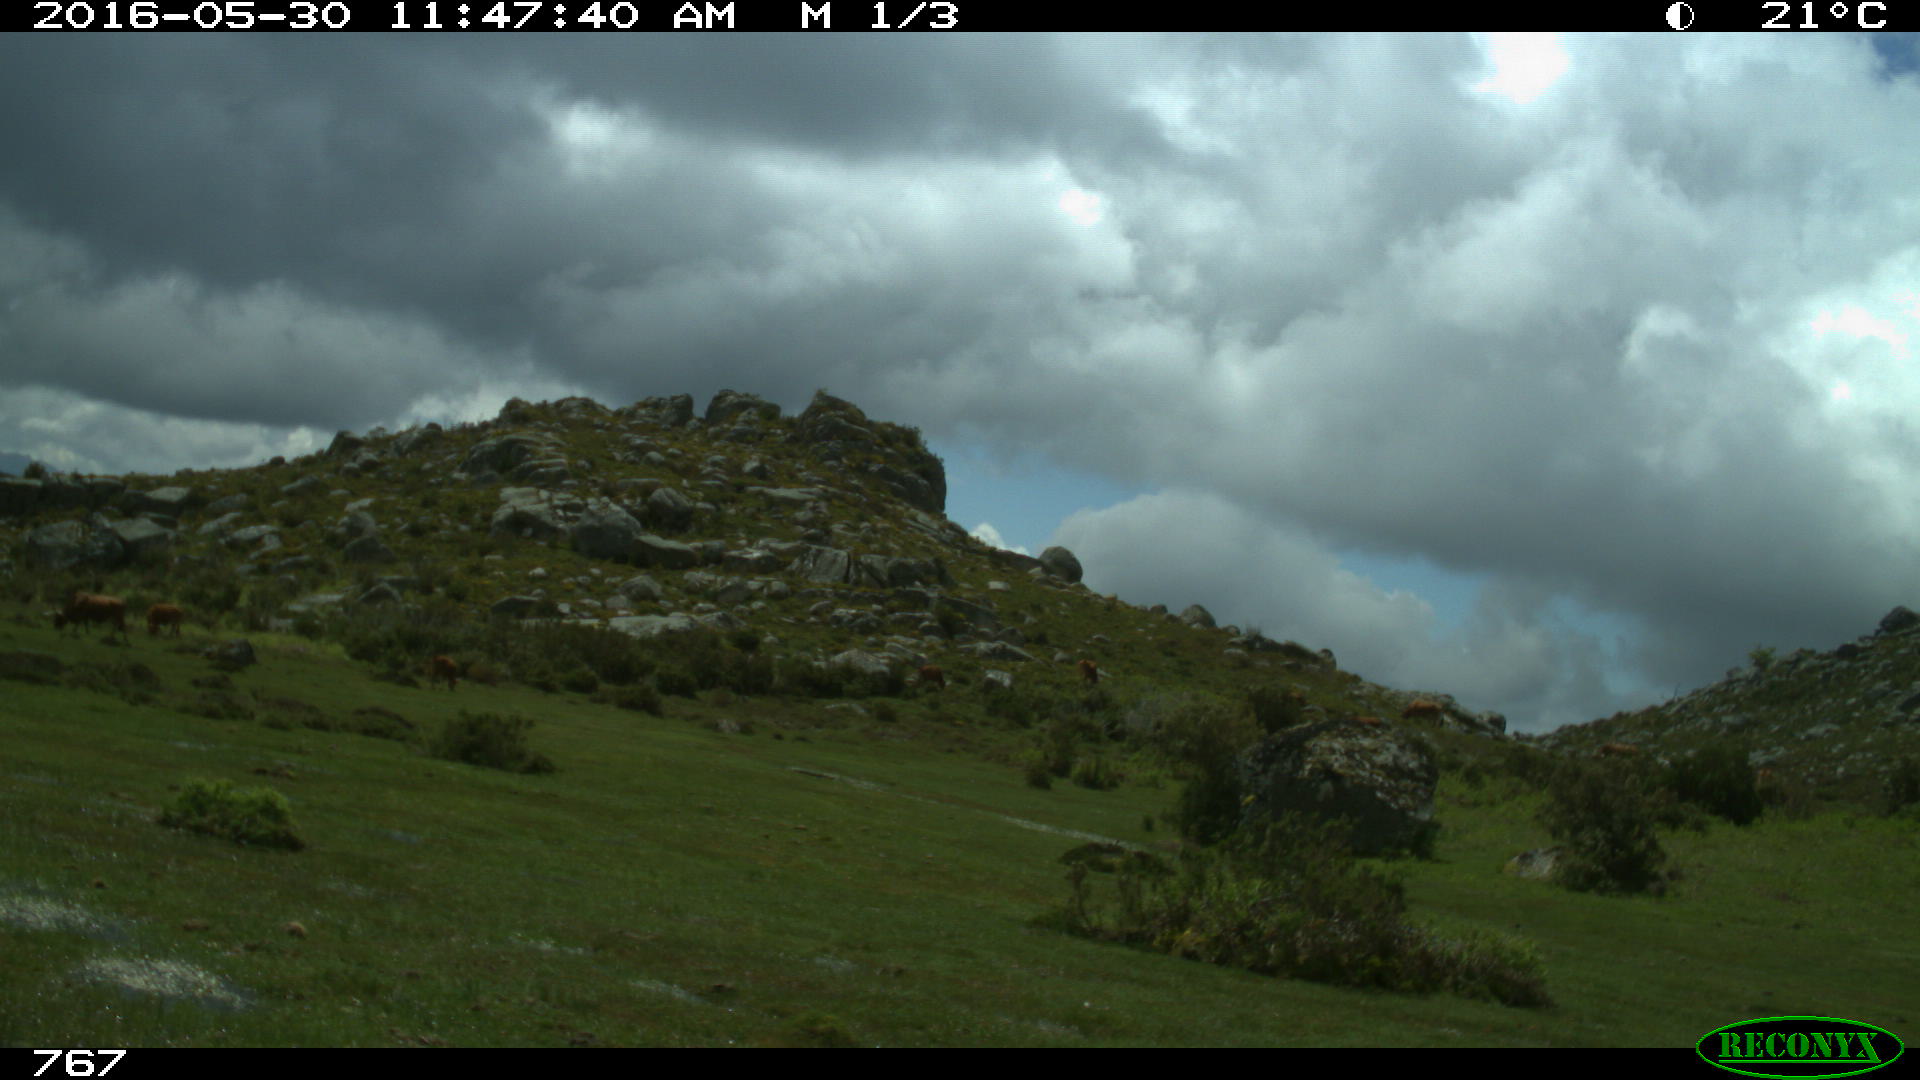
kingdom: Animalia
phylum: Chordata
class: Mammalia
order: Artiodactyla
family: Bovidae
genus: Bos
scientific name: Bos taurus
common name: Domesticated cattle
